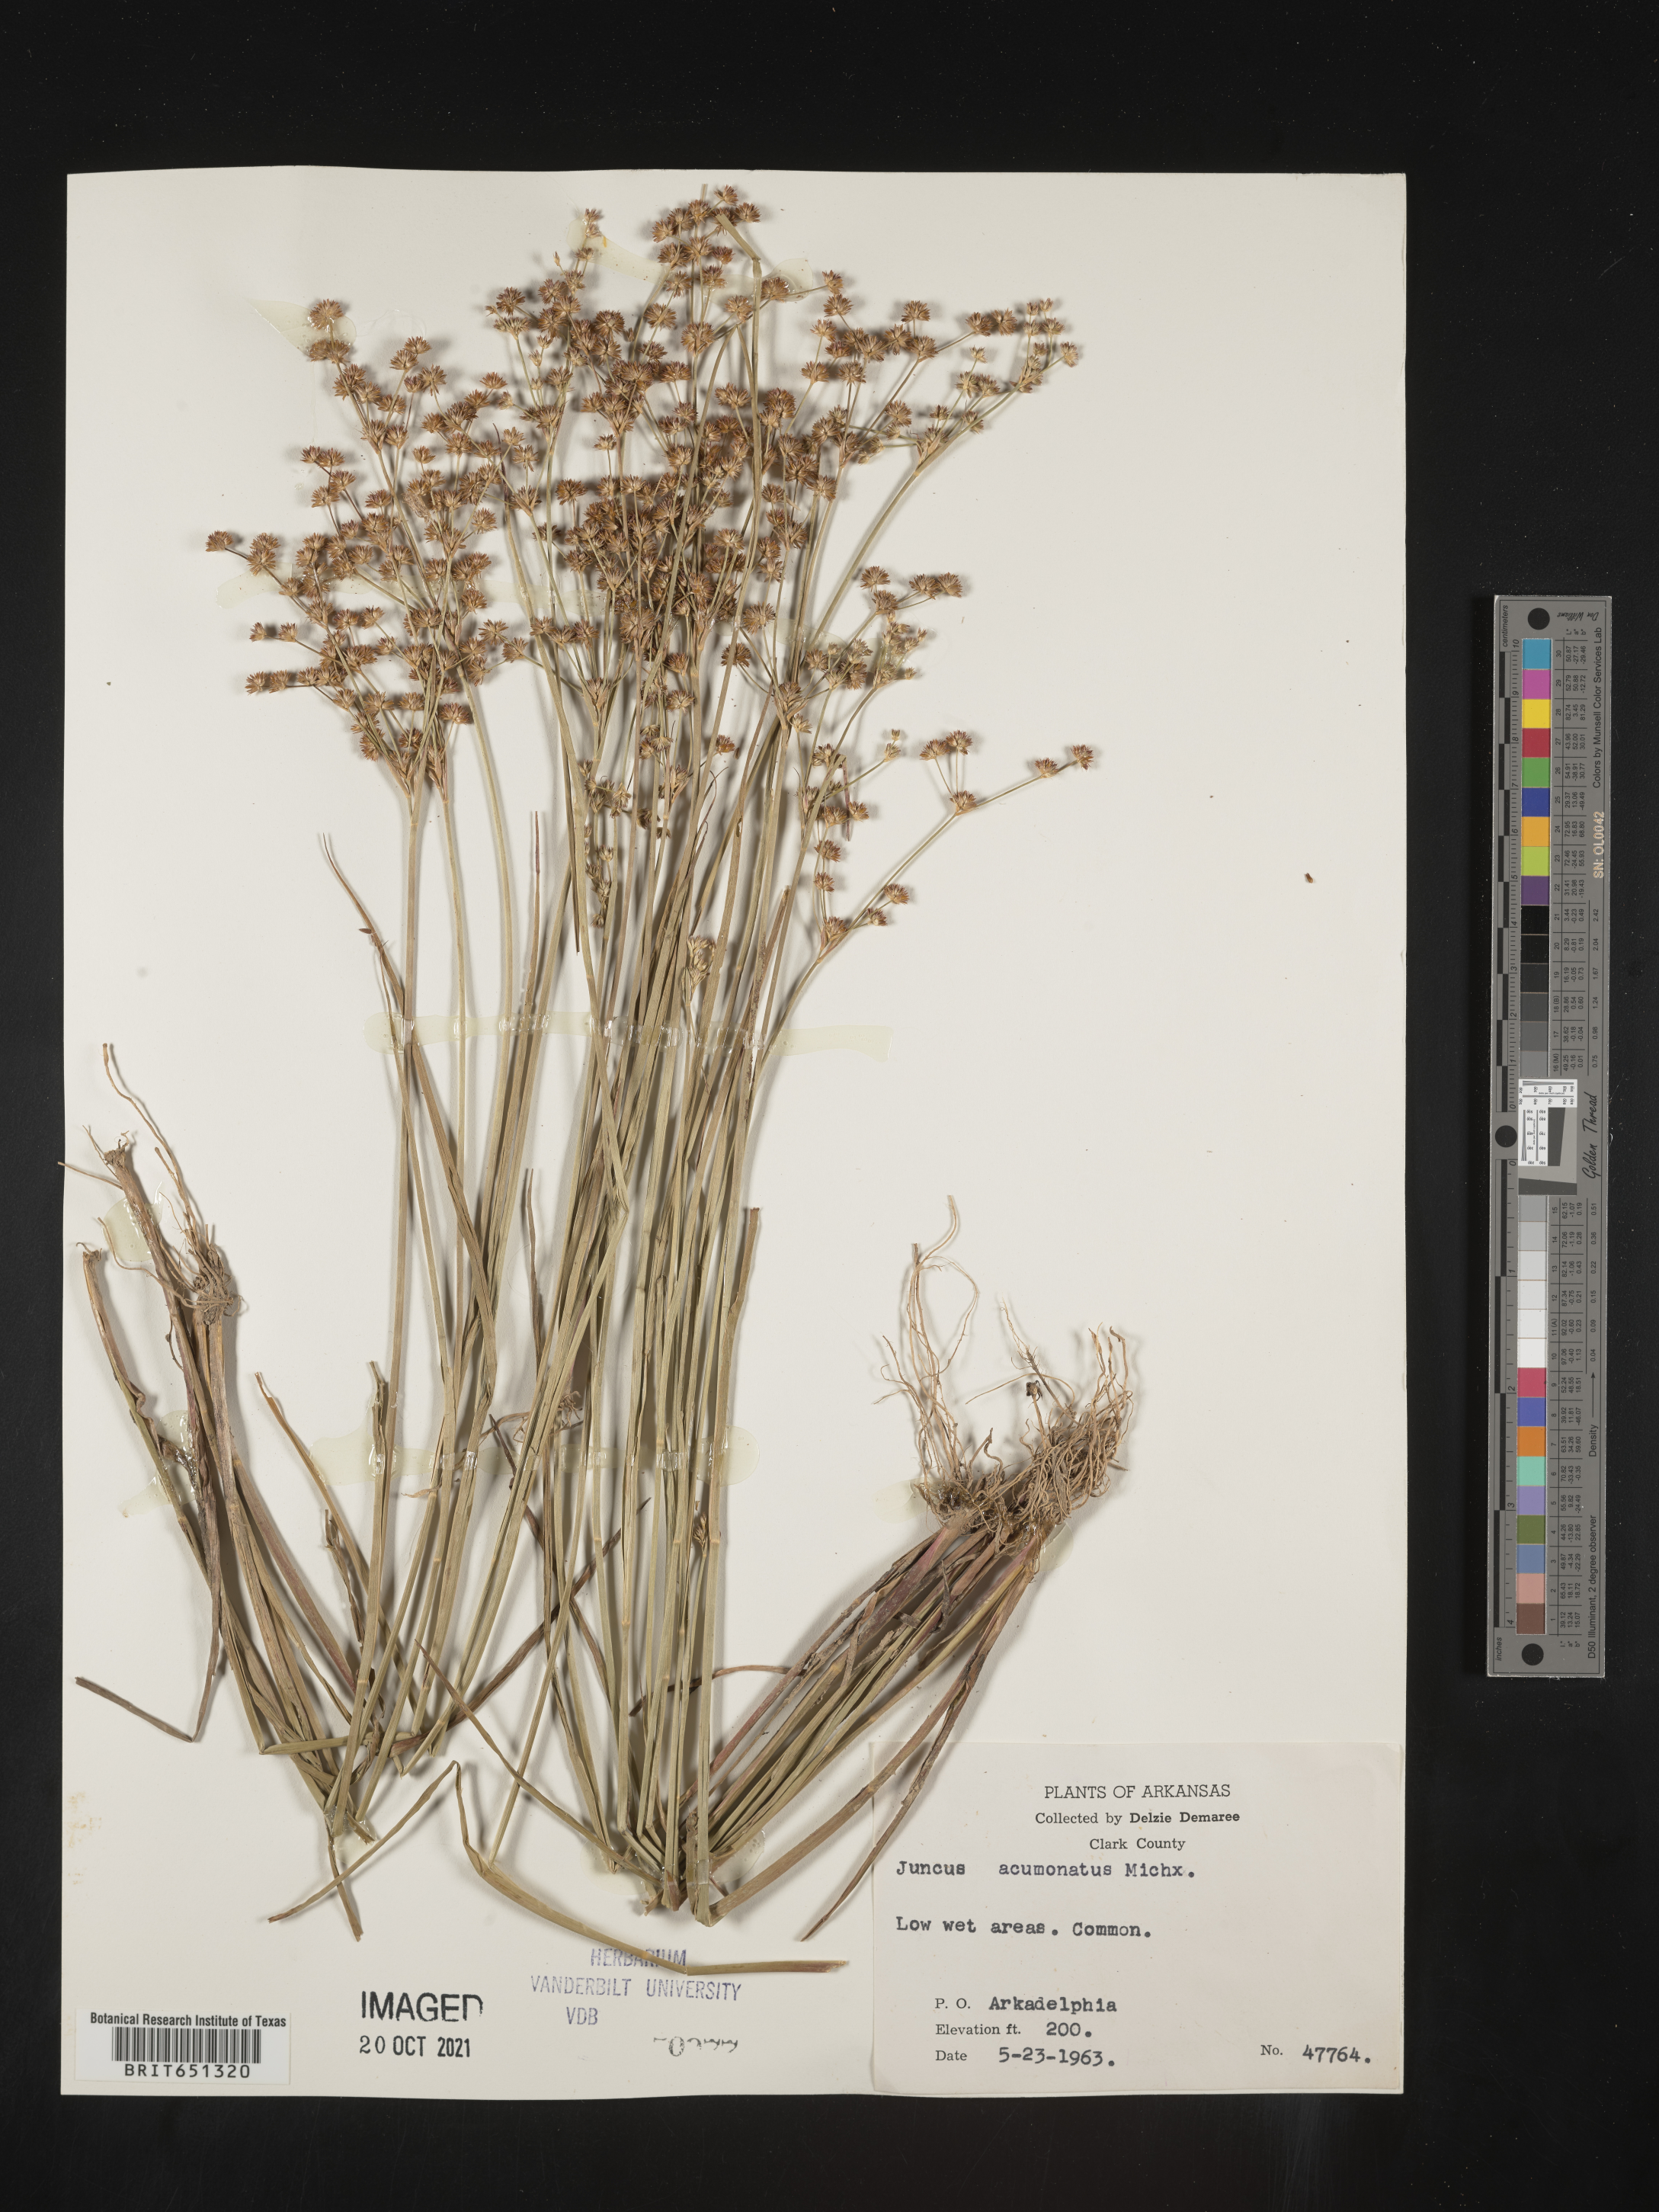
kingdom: Plantae
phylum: Tracheophyta
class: Liliopsida
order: Poales
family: Juncaceae
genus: Juncus
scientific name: Juncus acuminatus
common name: Knotty-leaved rush
